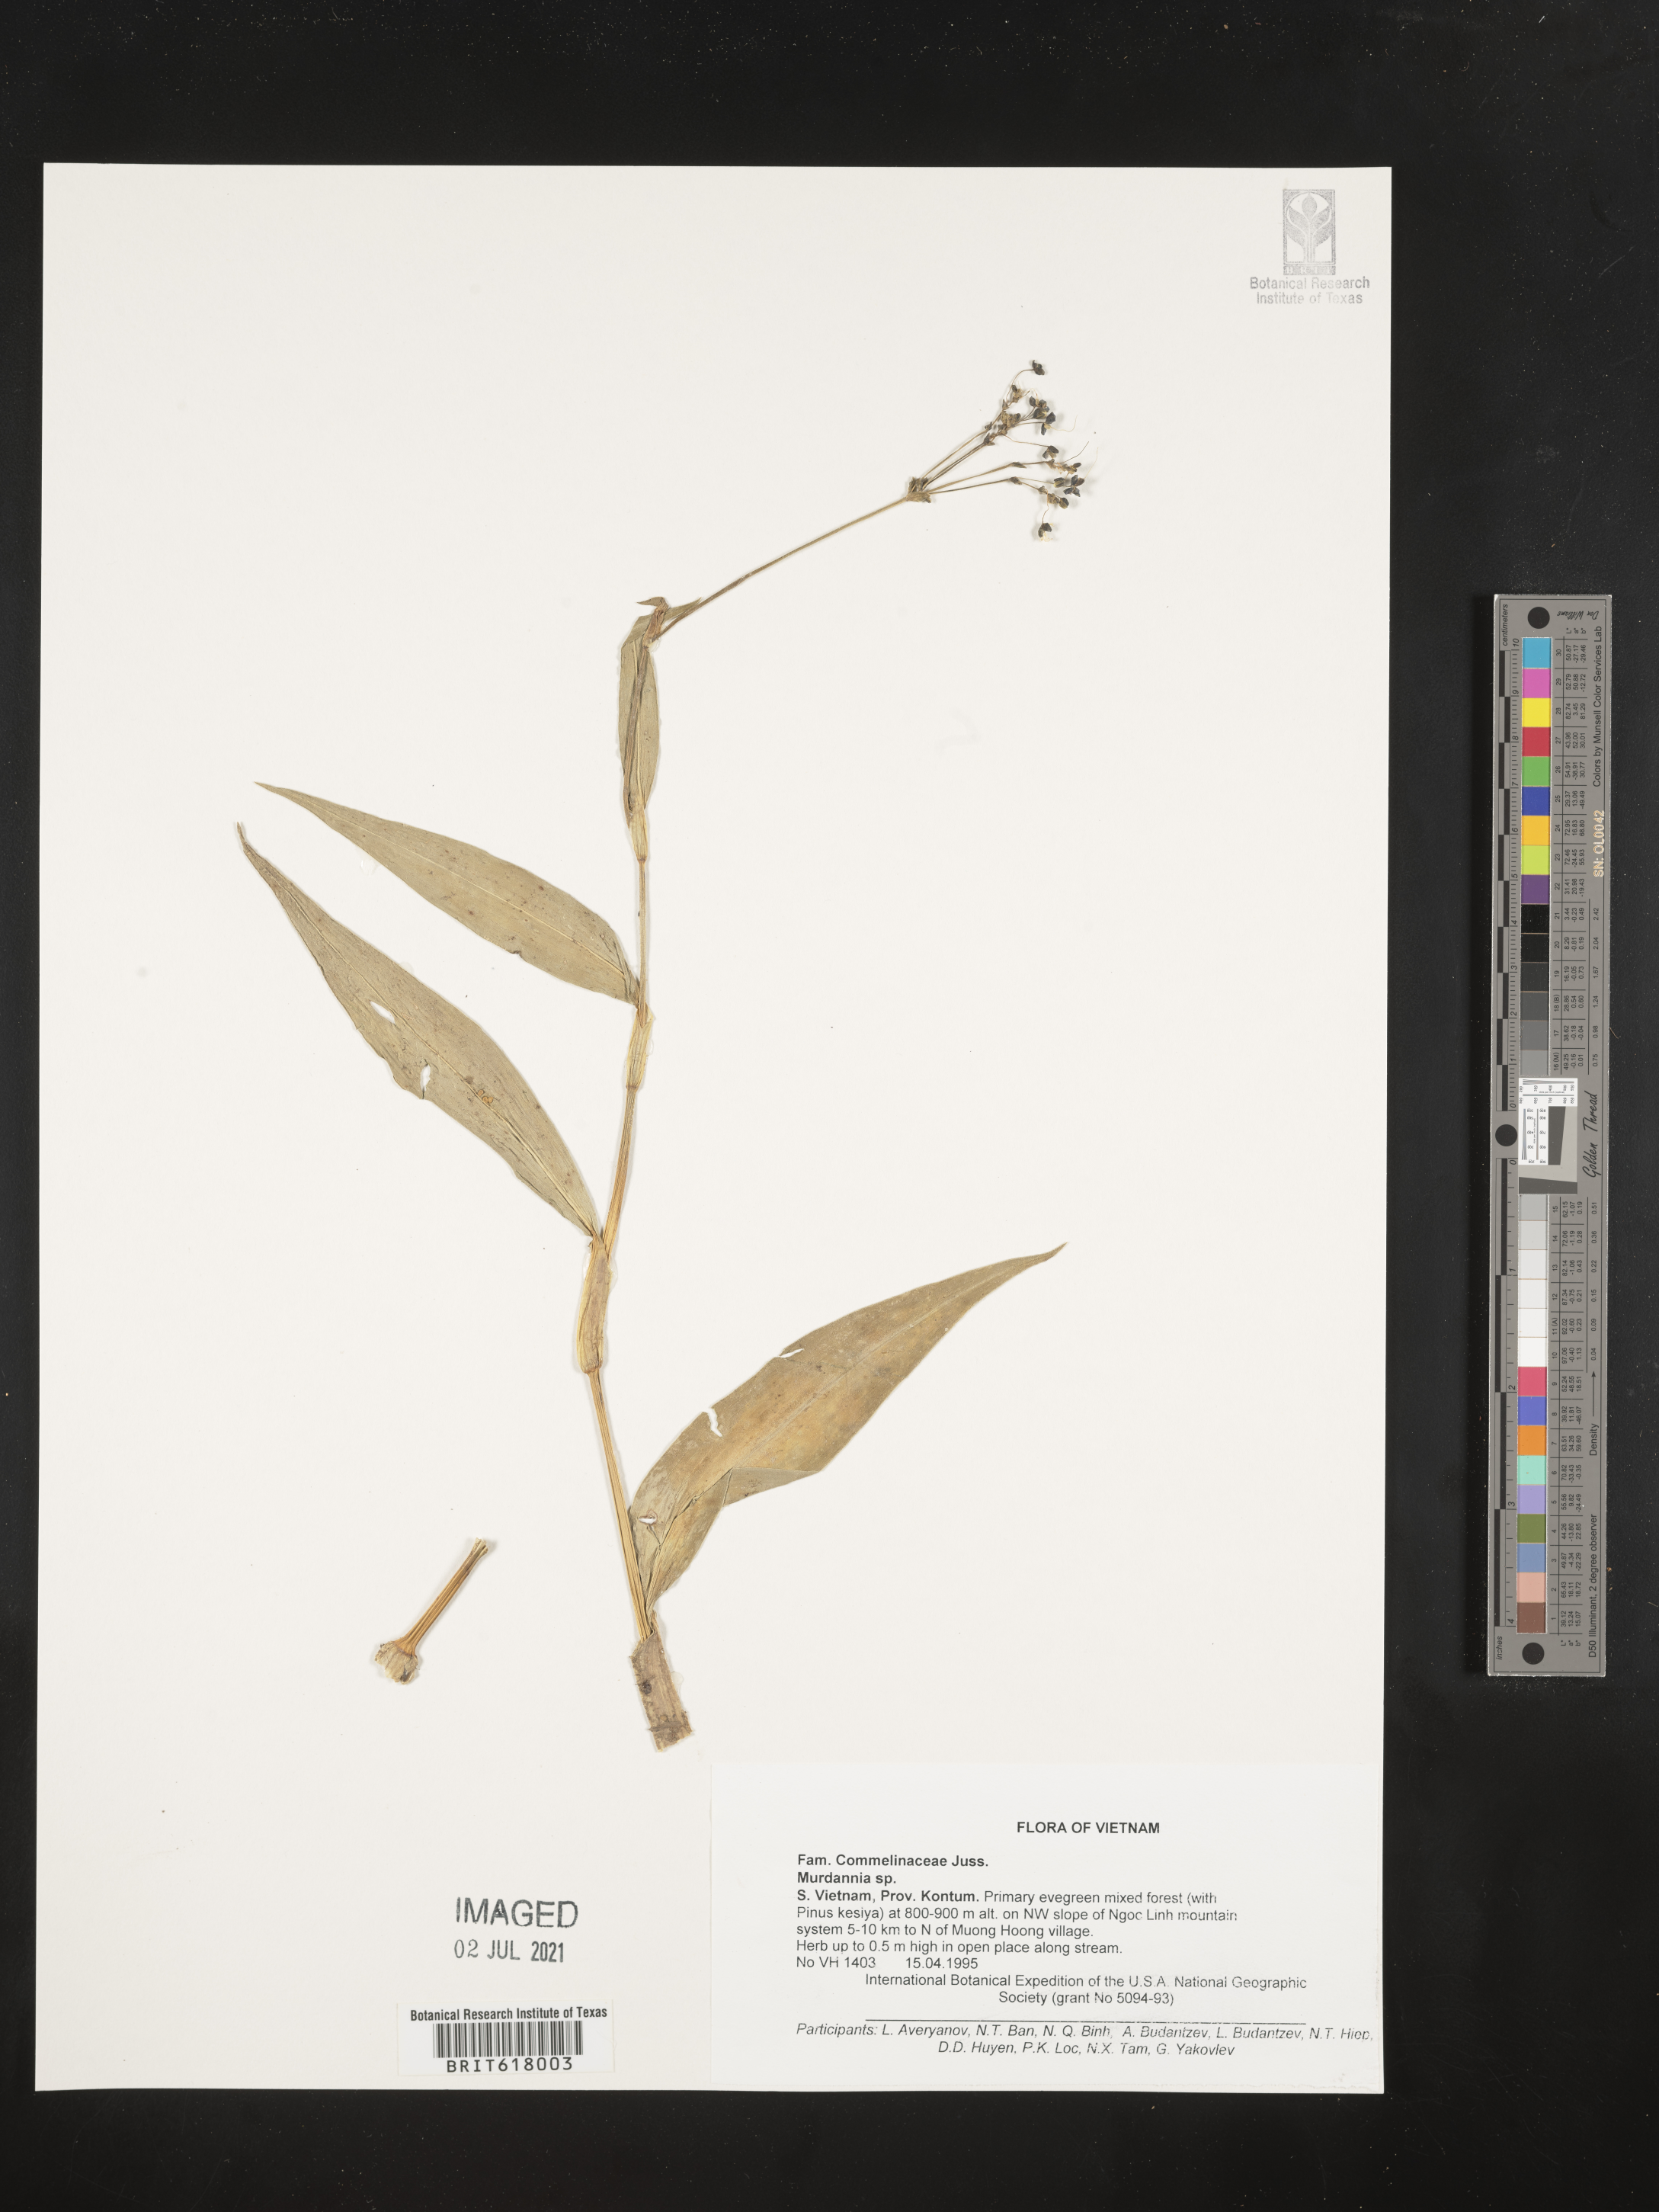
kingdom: Plantae
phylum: Tracheophyta
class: Liliopsida
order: Commelinales
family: Commelinaceae
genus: Murdannia
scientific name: Murdannia
